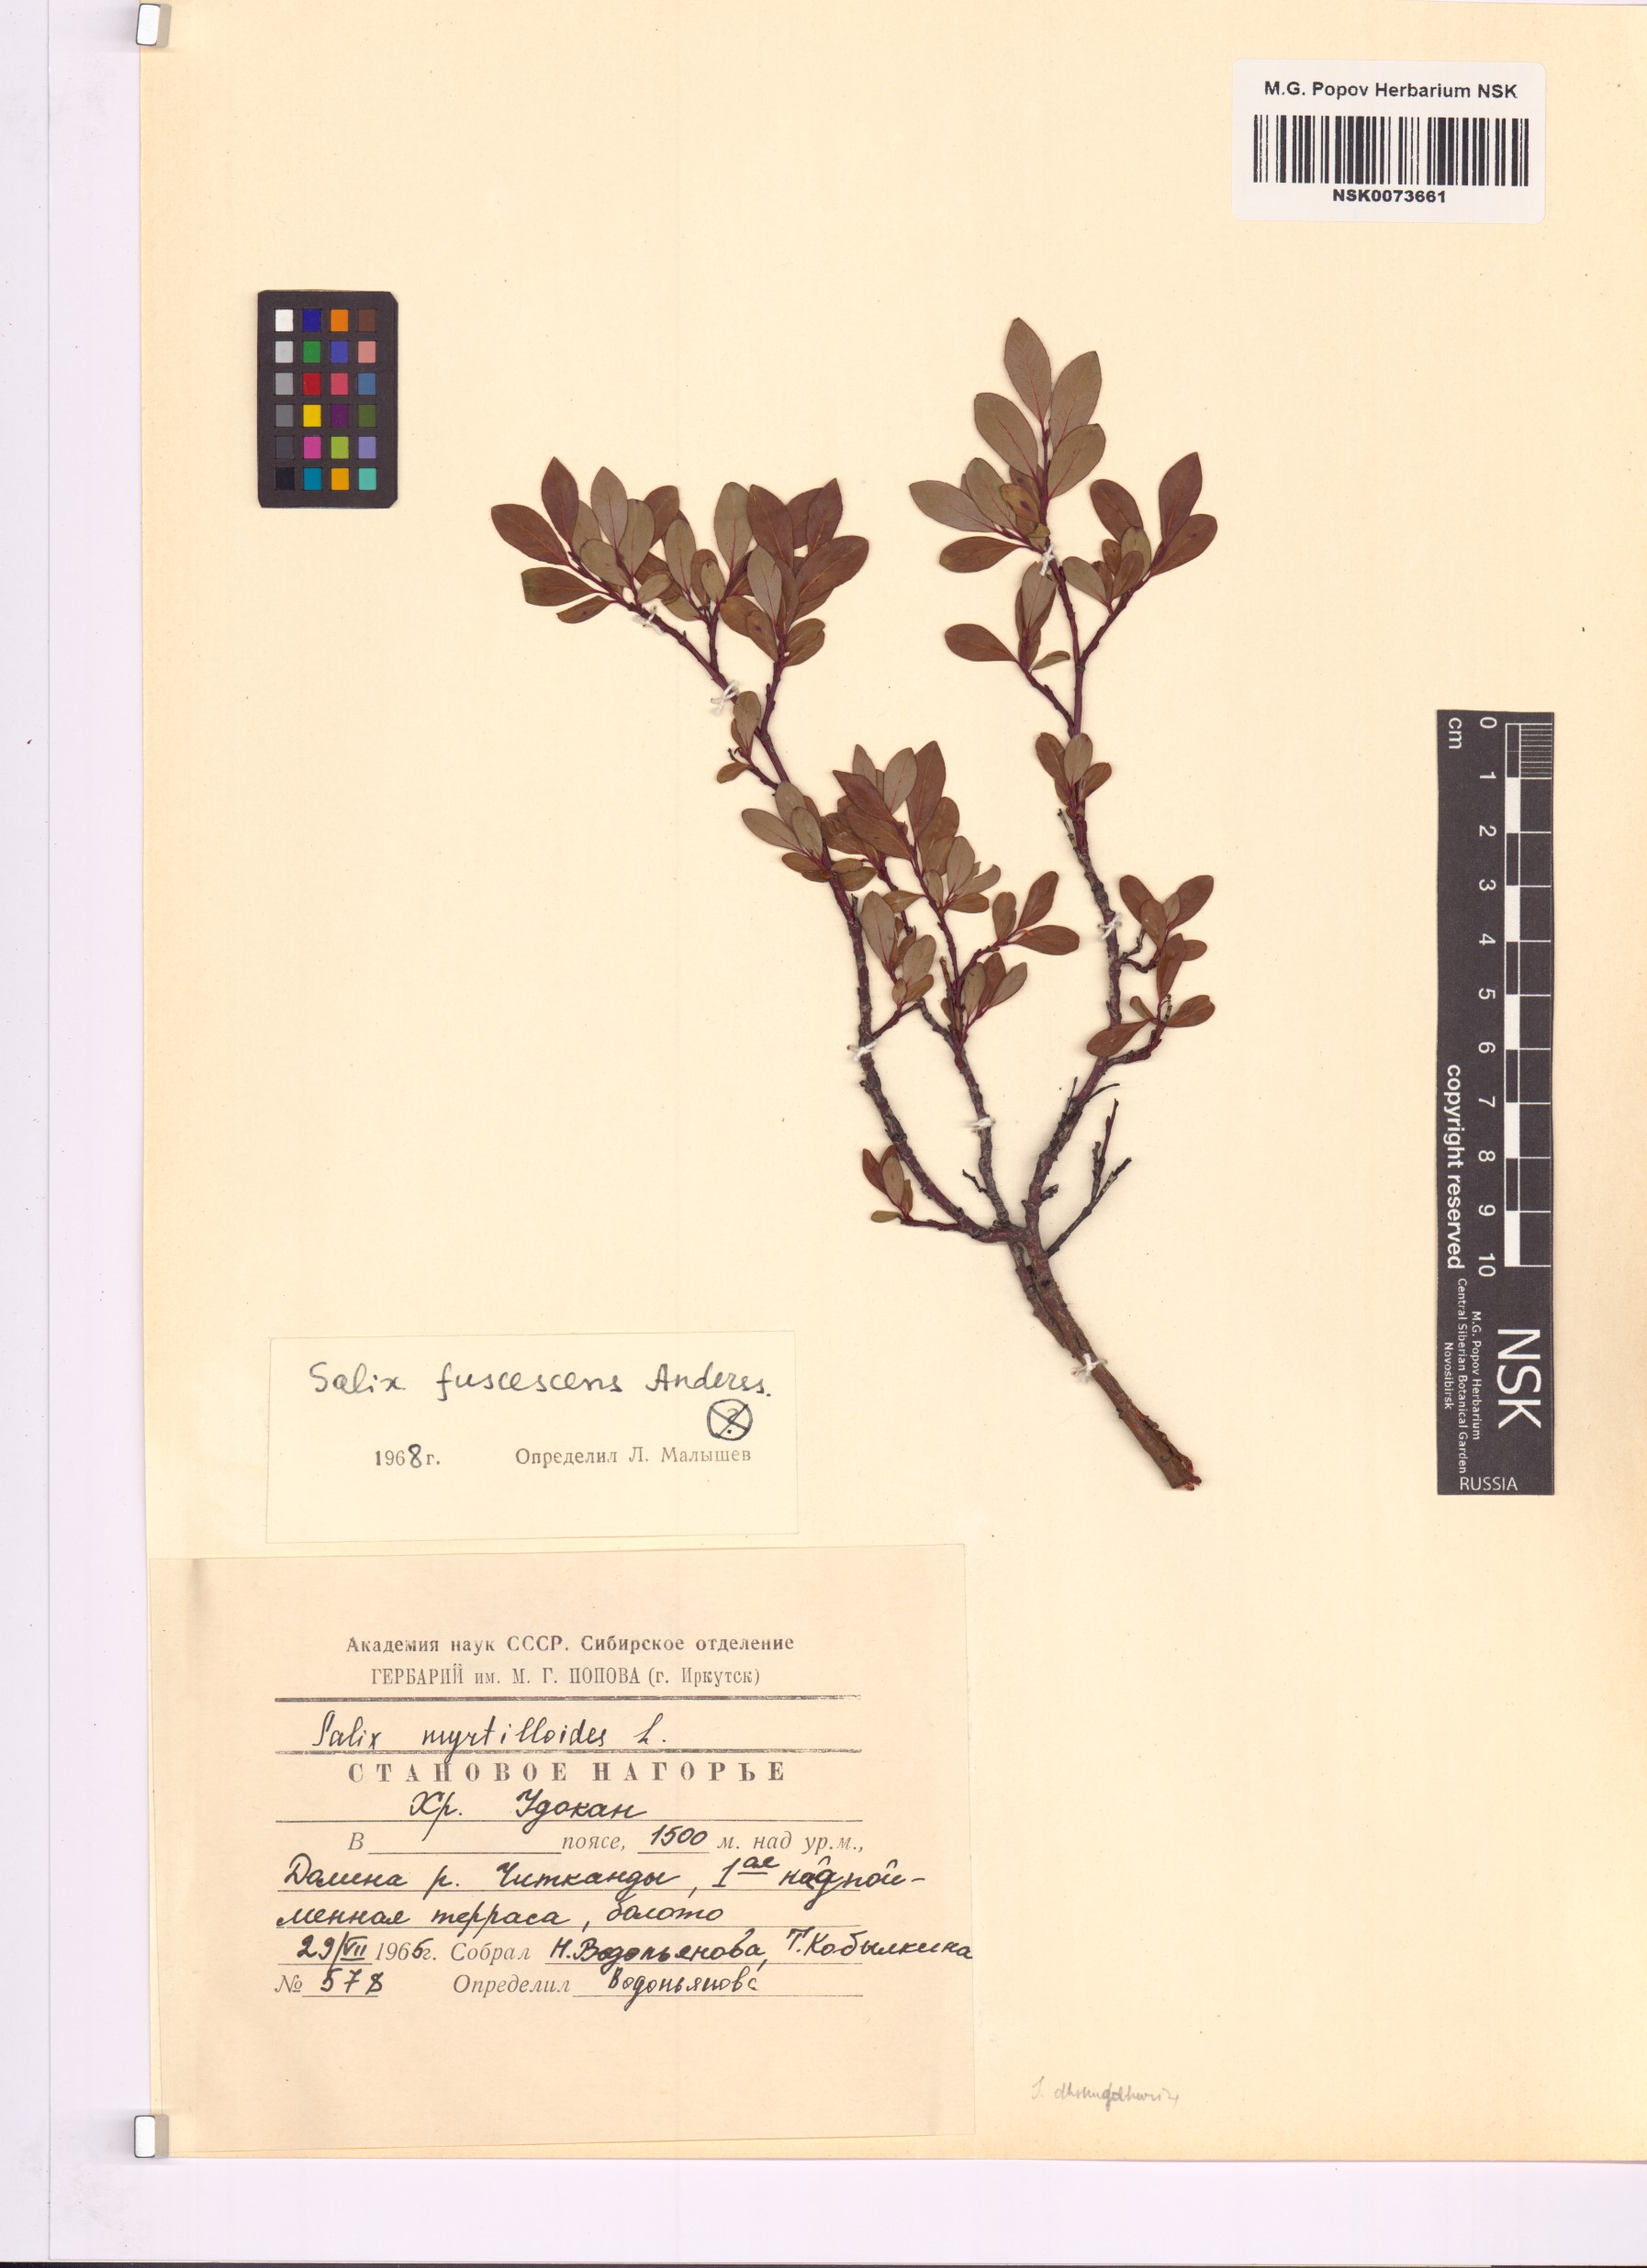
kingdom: Plantae
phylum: Tracheophyta
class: Magnoliopsida
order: Malpighiales
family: Salicaceae
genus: Salix
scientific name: Salix fuscescens
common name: Brownish willow
